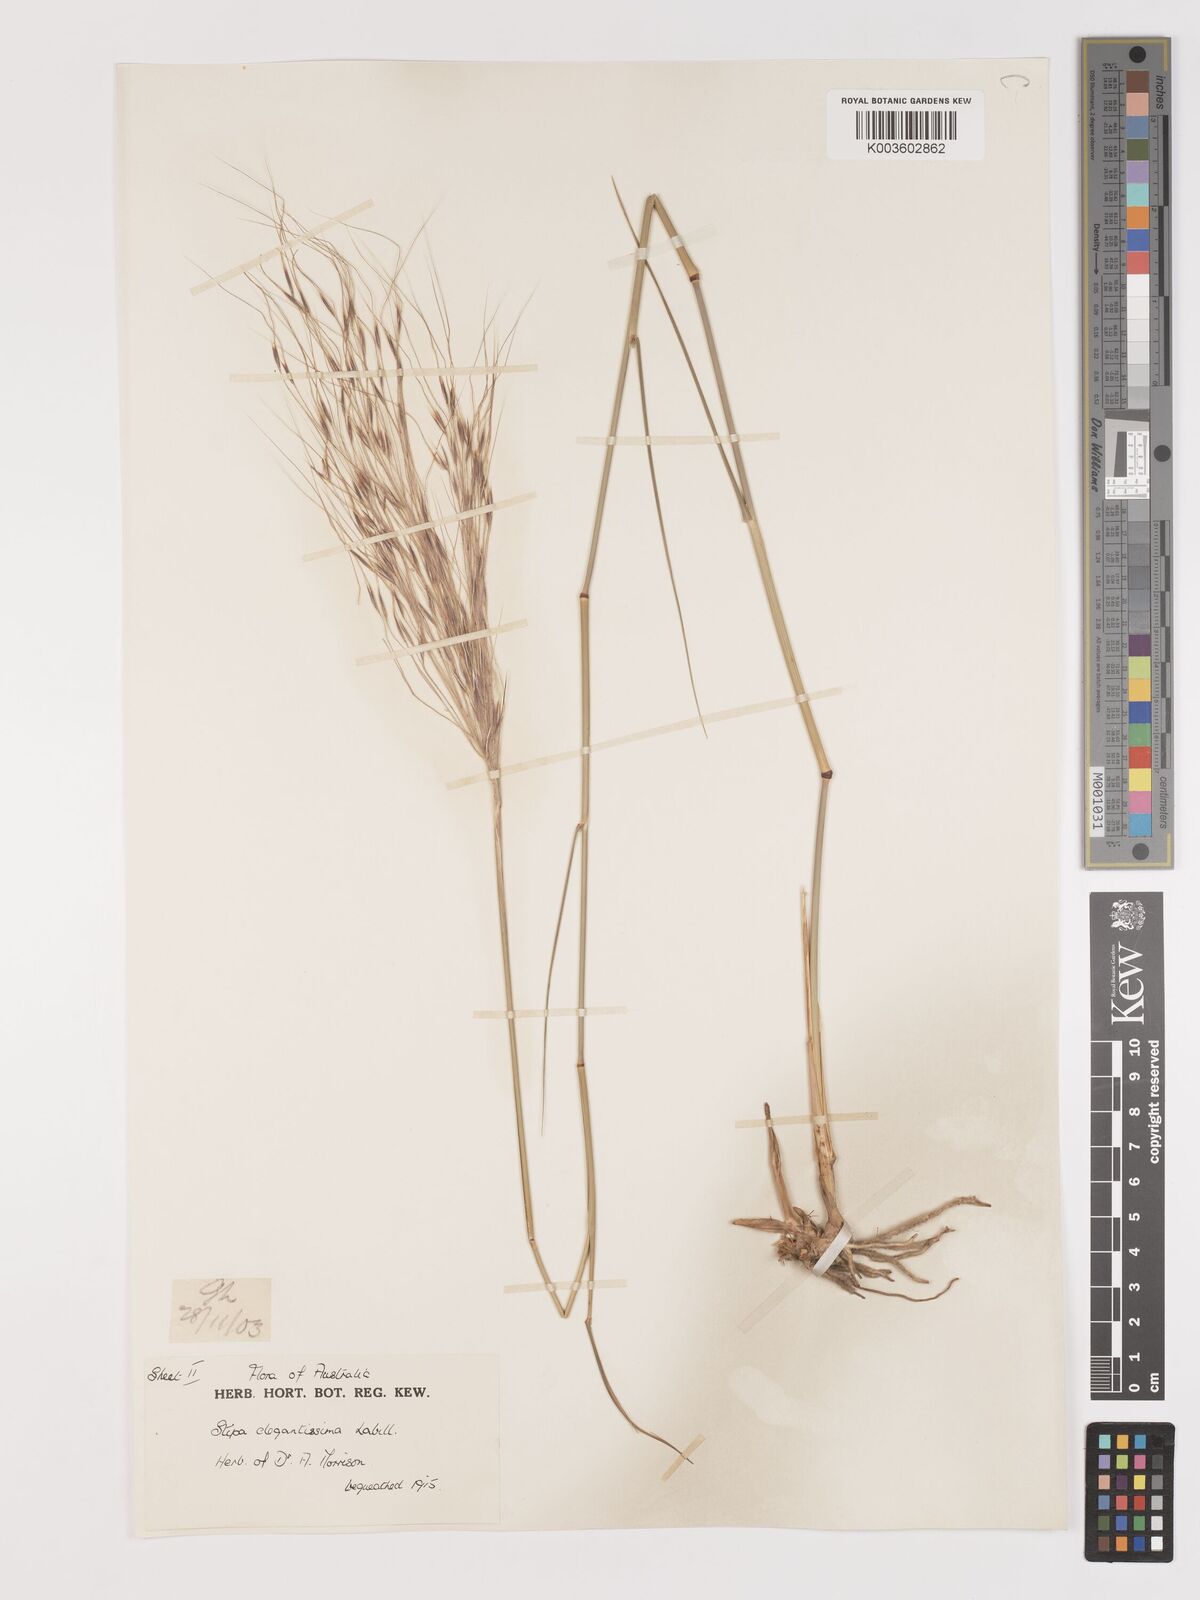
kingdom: Plantae
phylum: Tracheophyta
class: Liliopsida
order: Poales
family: Poaceae
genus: Austrostipa
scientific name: Austrostipa elegantissima
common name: Feather spear grass
